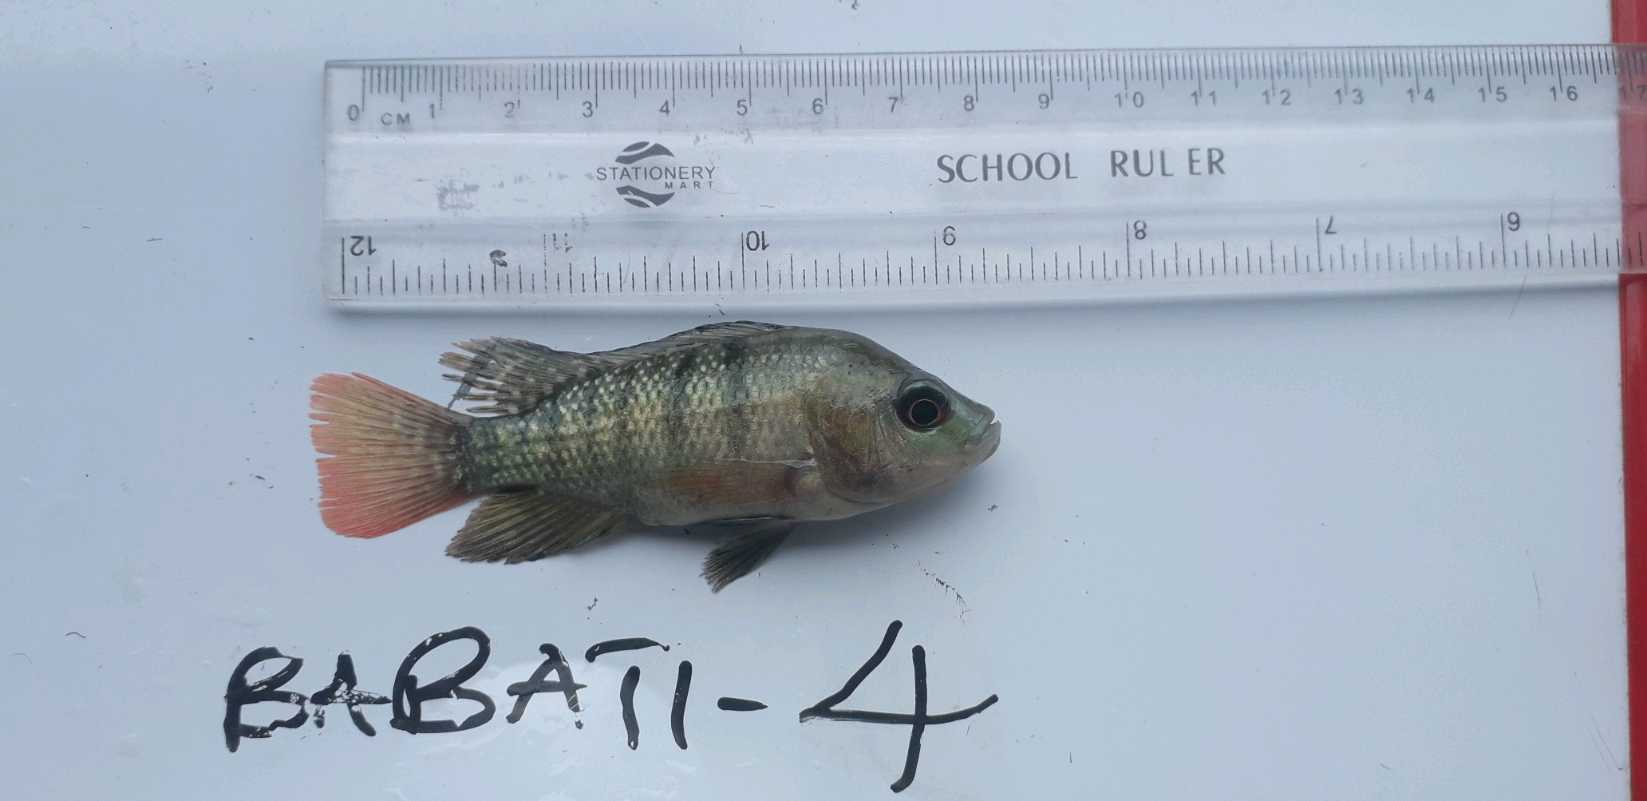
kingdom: Animalia
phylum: Chordata
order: Perciformes
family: Cichlidae
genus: Oreochromis
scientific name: Oreochromis
